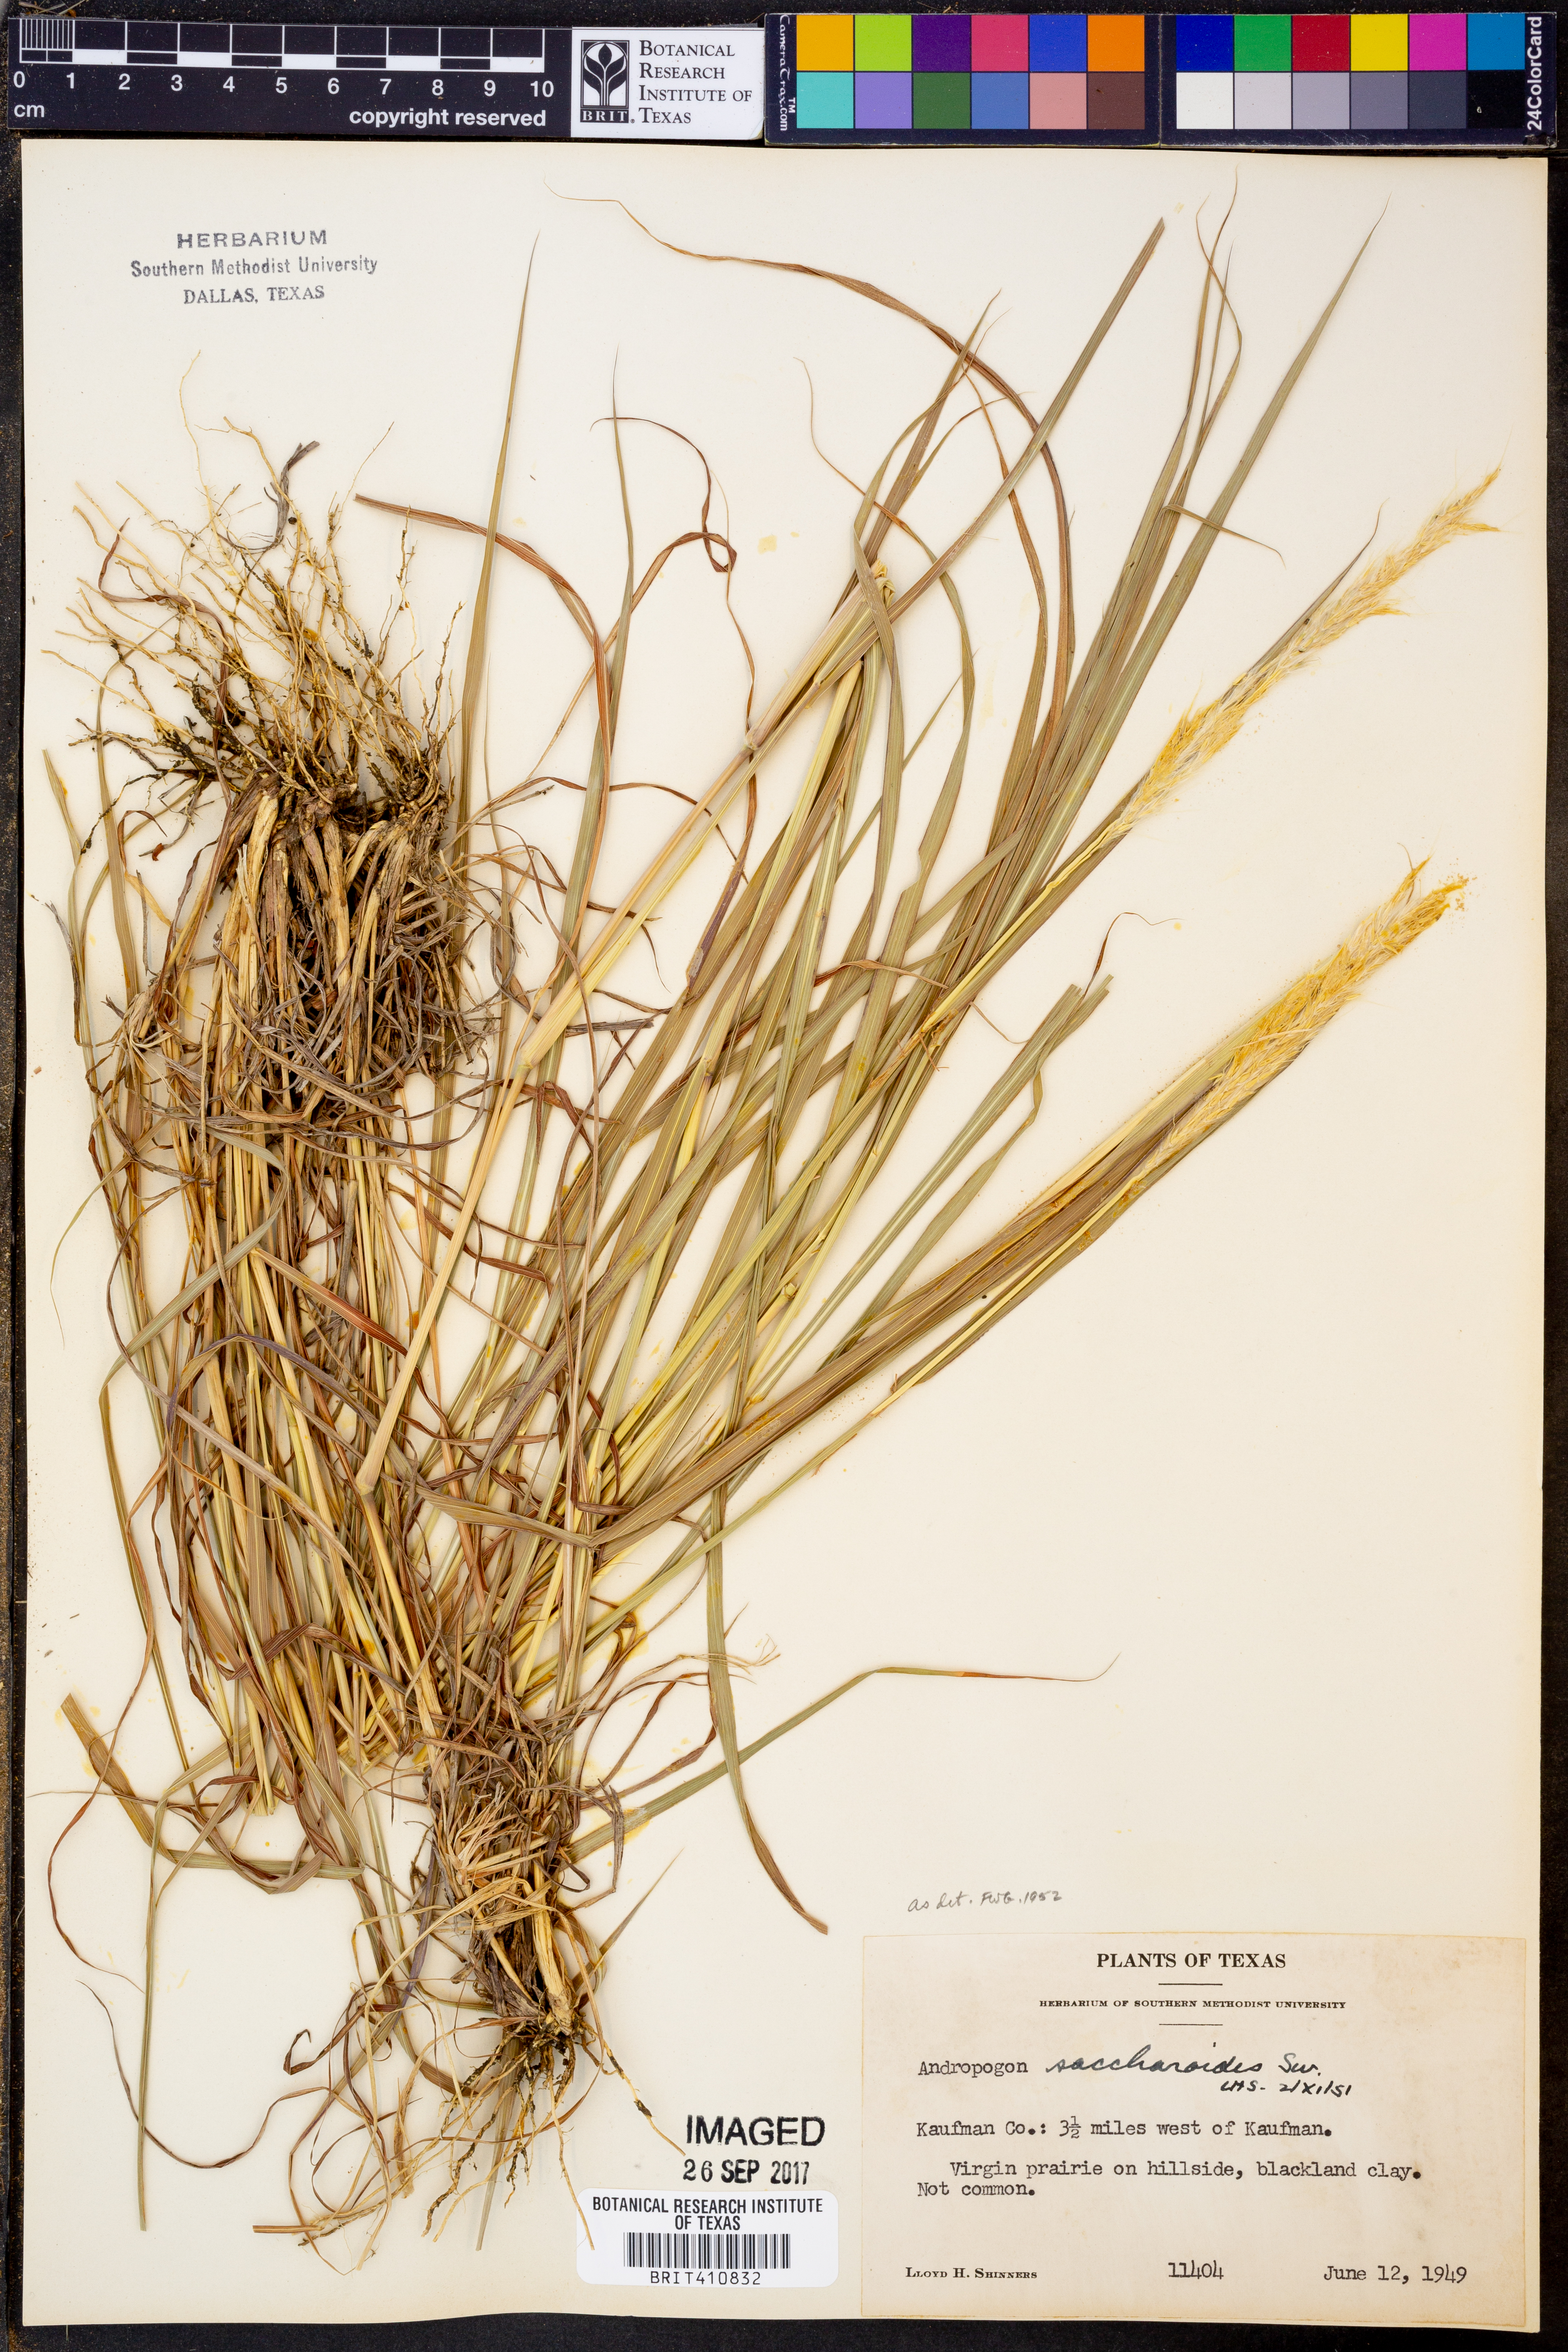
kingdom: Plantae
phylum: Tracheophyta
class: Liliopsida
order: Poales
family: Poaceae
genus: Bothriochloa
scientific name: Bothriochloa saccharoides
